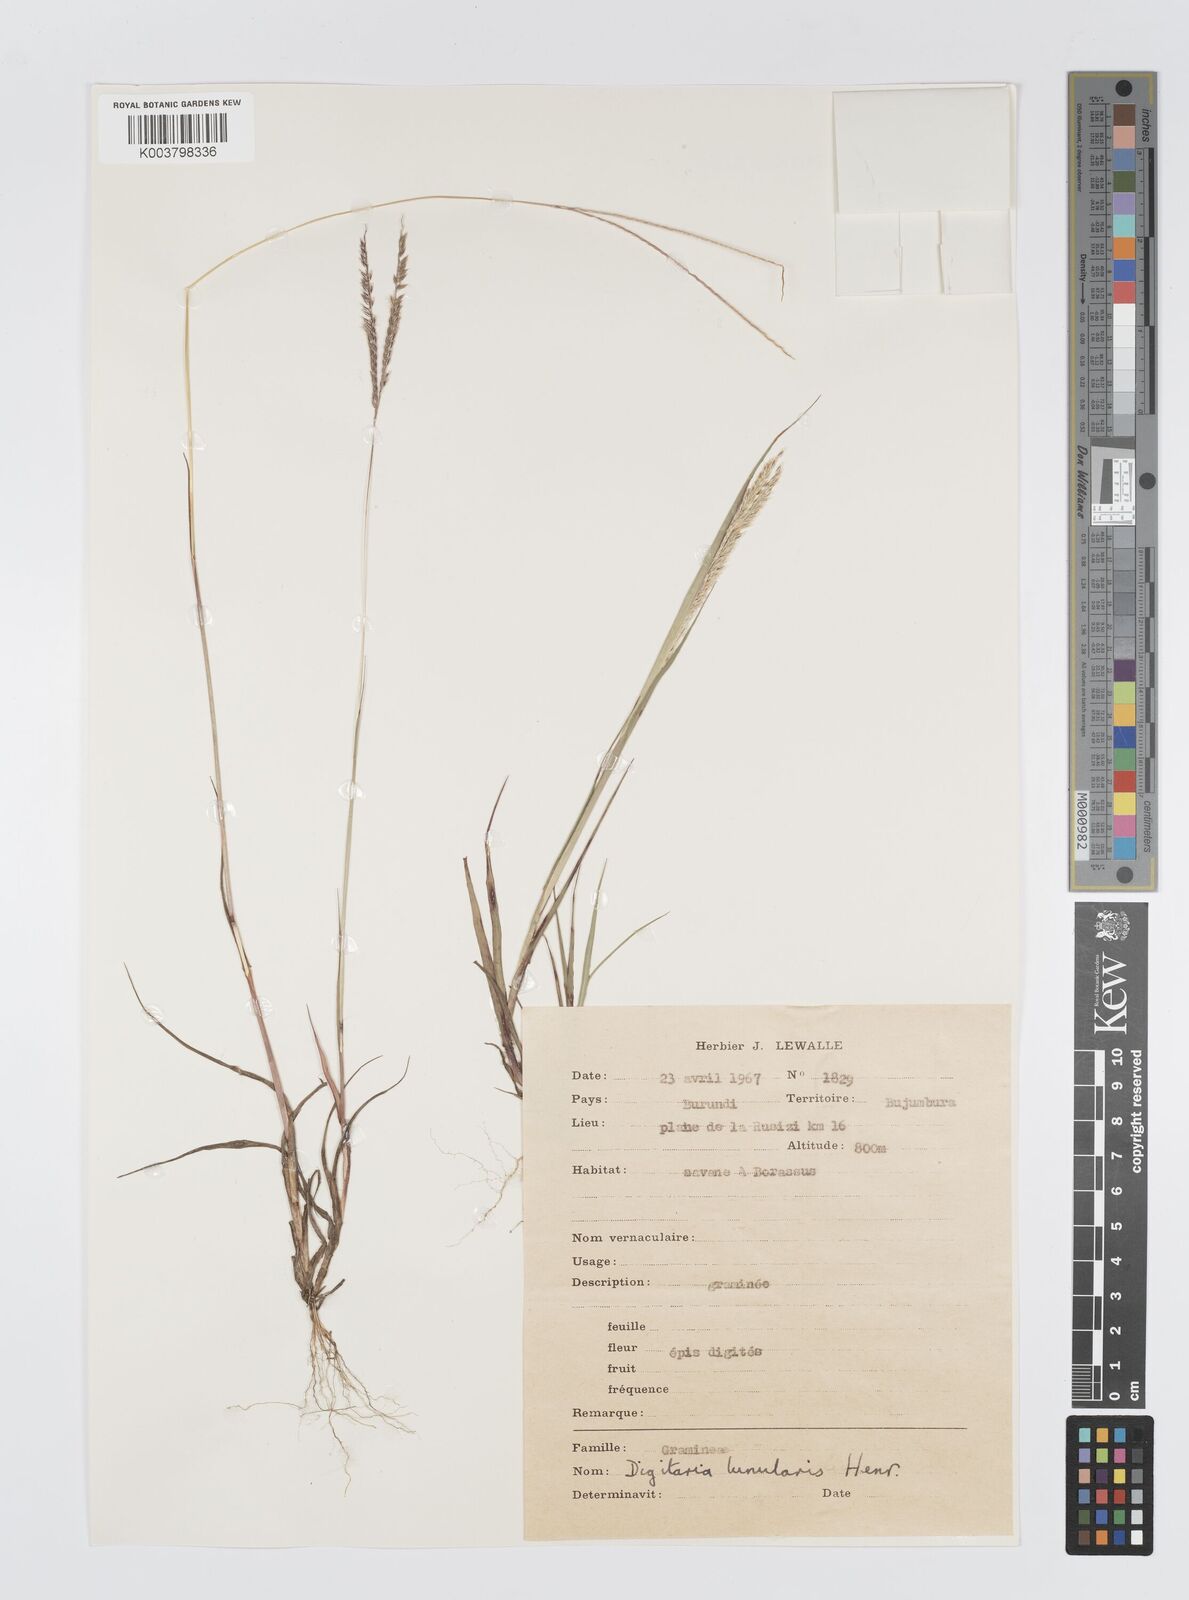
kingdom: Plantae
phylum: Tracheophyta
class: Liliopsida
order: Poales
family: Poaceae
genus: Digitaria
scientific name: Digitaria comifera
